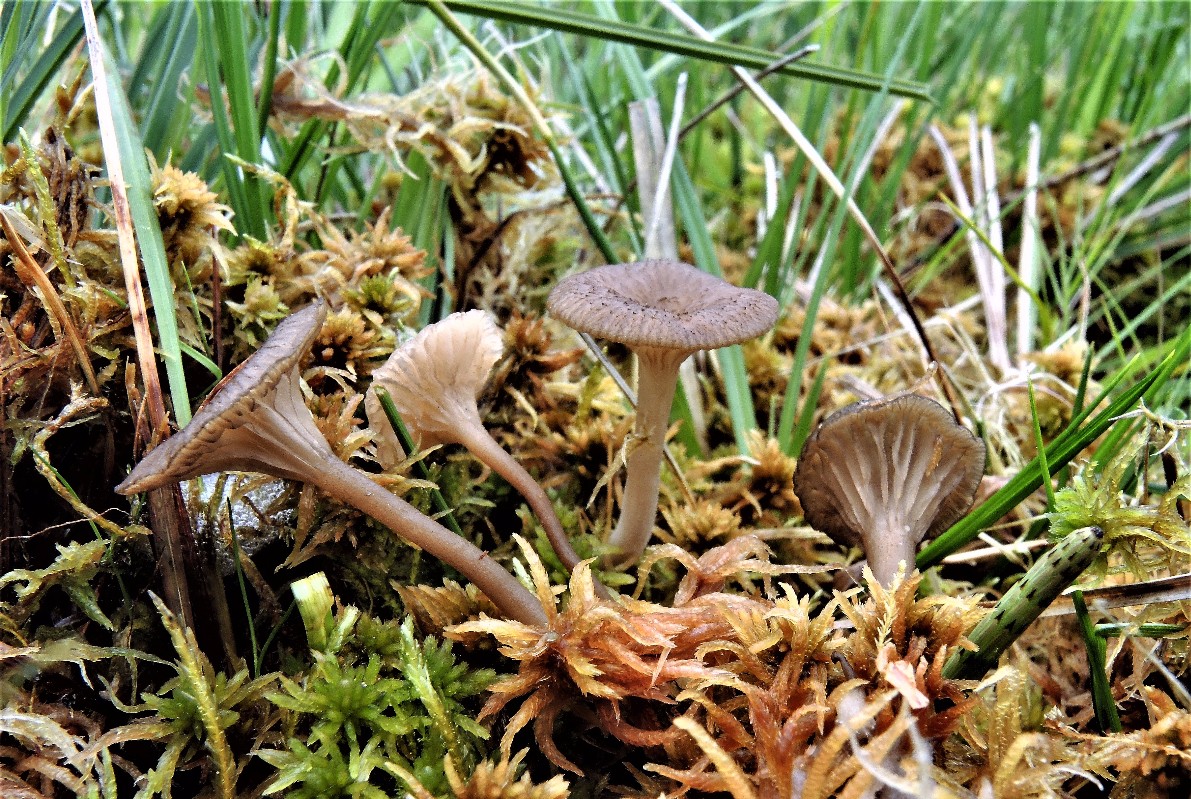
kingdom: Fungi
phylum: Basidiomycota
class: Agaricomycetes
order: Agaricales
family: Hygrophoraceae
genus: Arrhenia
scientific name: Arrhenia gerardiana
